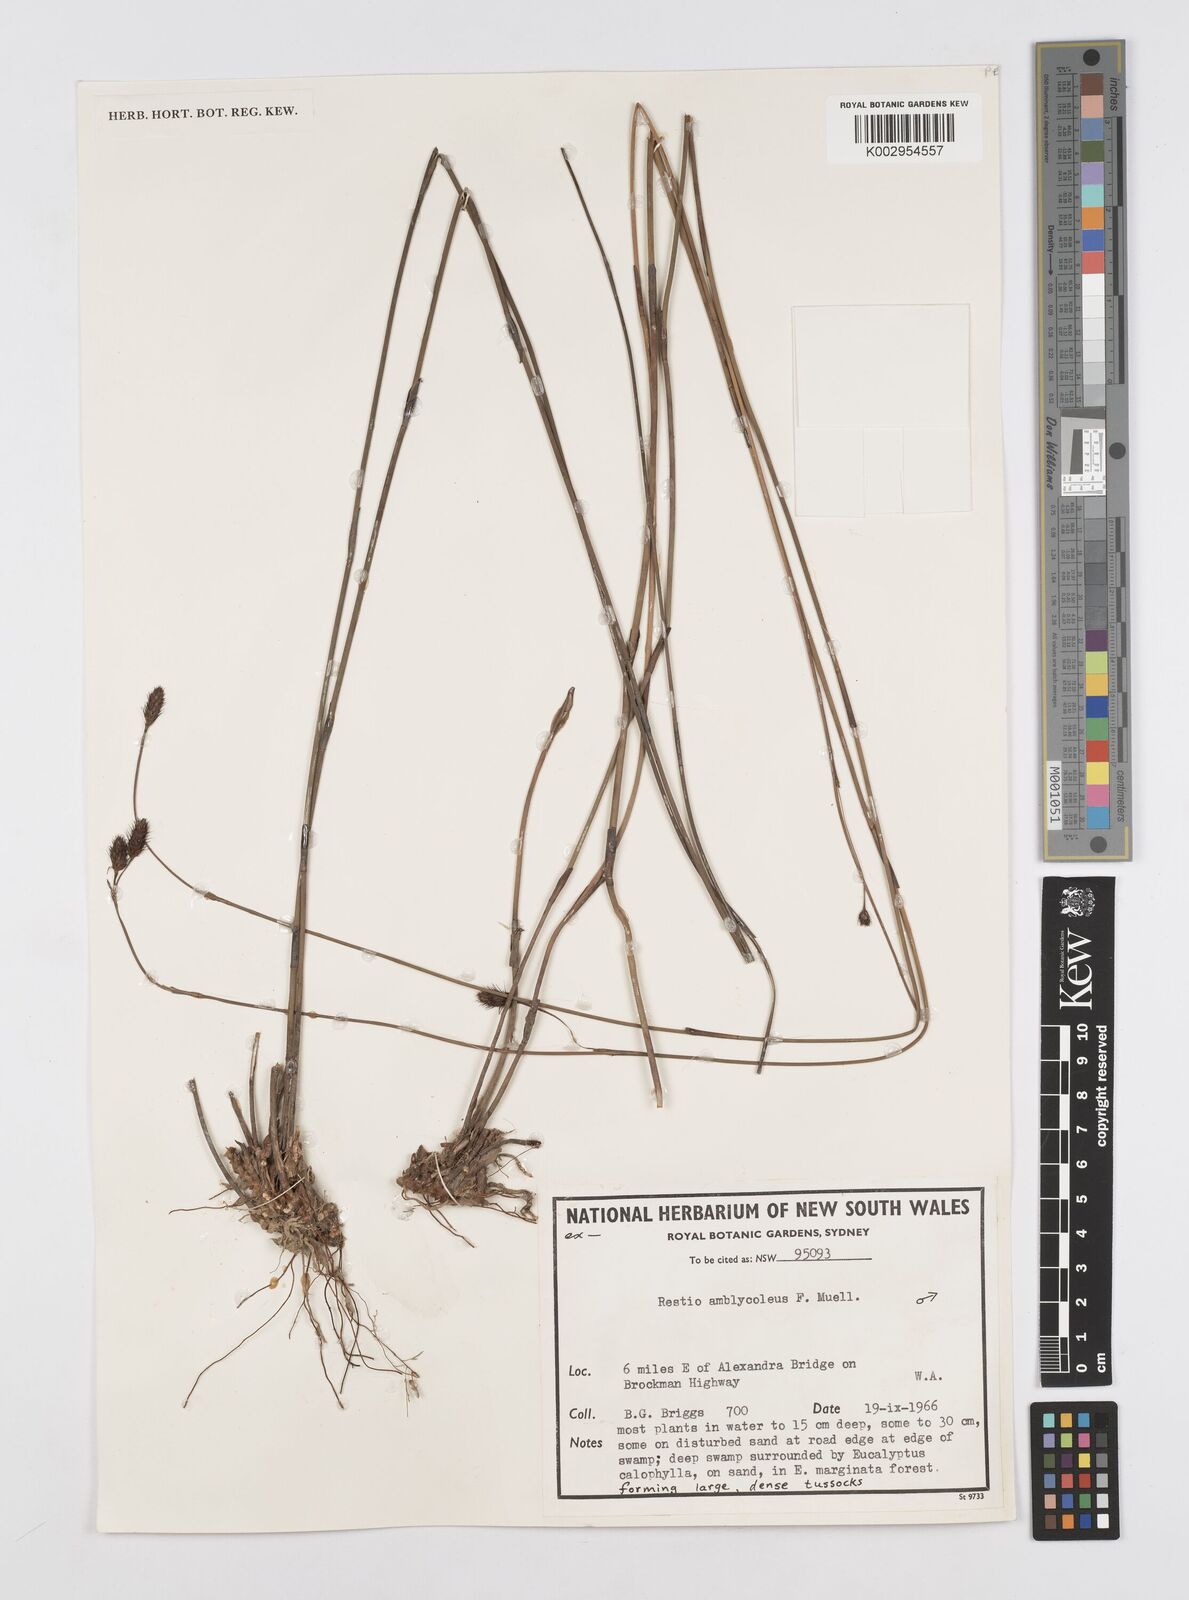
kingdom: Plantae
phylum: Tracheophyta
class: Liliopsida
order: Poales
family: Restionaceae
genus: Chordifex
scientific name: Chordifex amblycoleus
